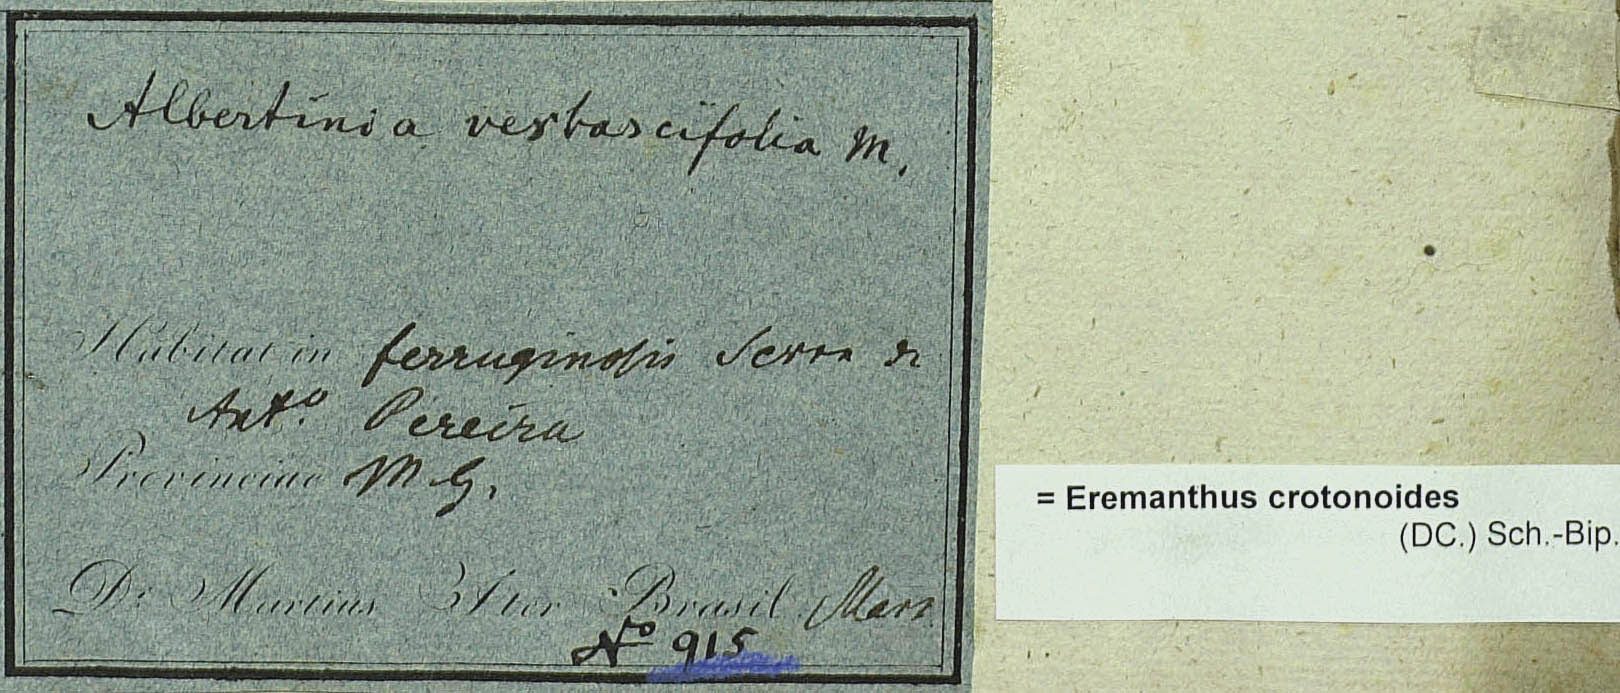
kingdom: Plantae
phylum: Tracheophyta
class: Magnoliopsida
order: Asterales
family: Asteraceae
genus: Eremanthus
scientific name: Eremanthus crotonoides
